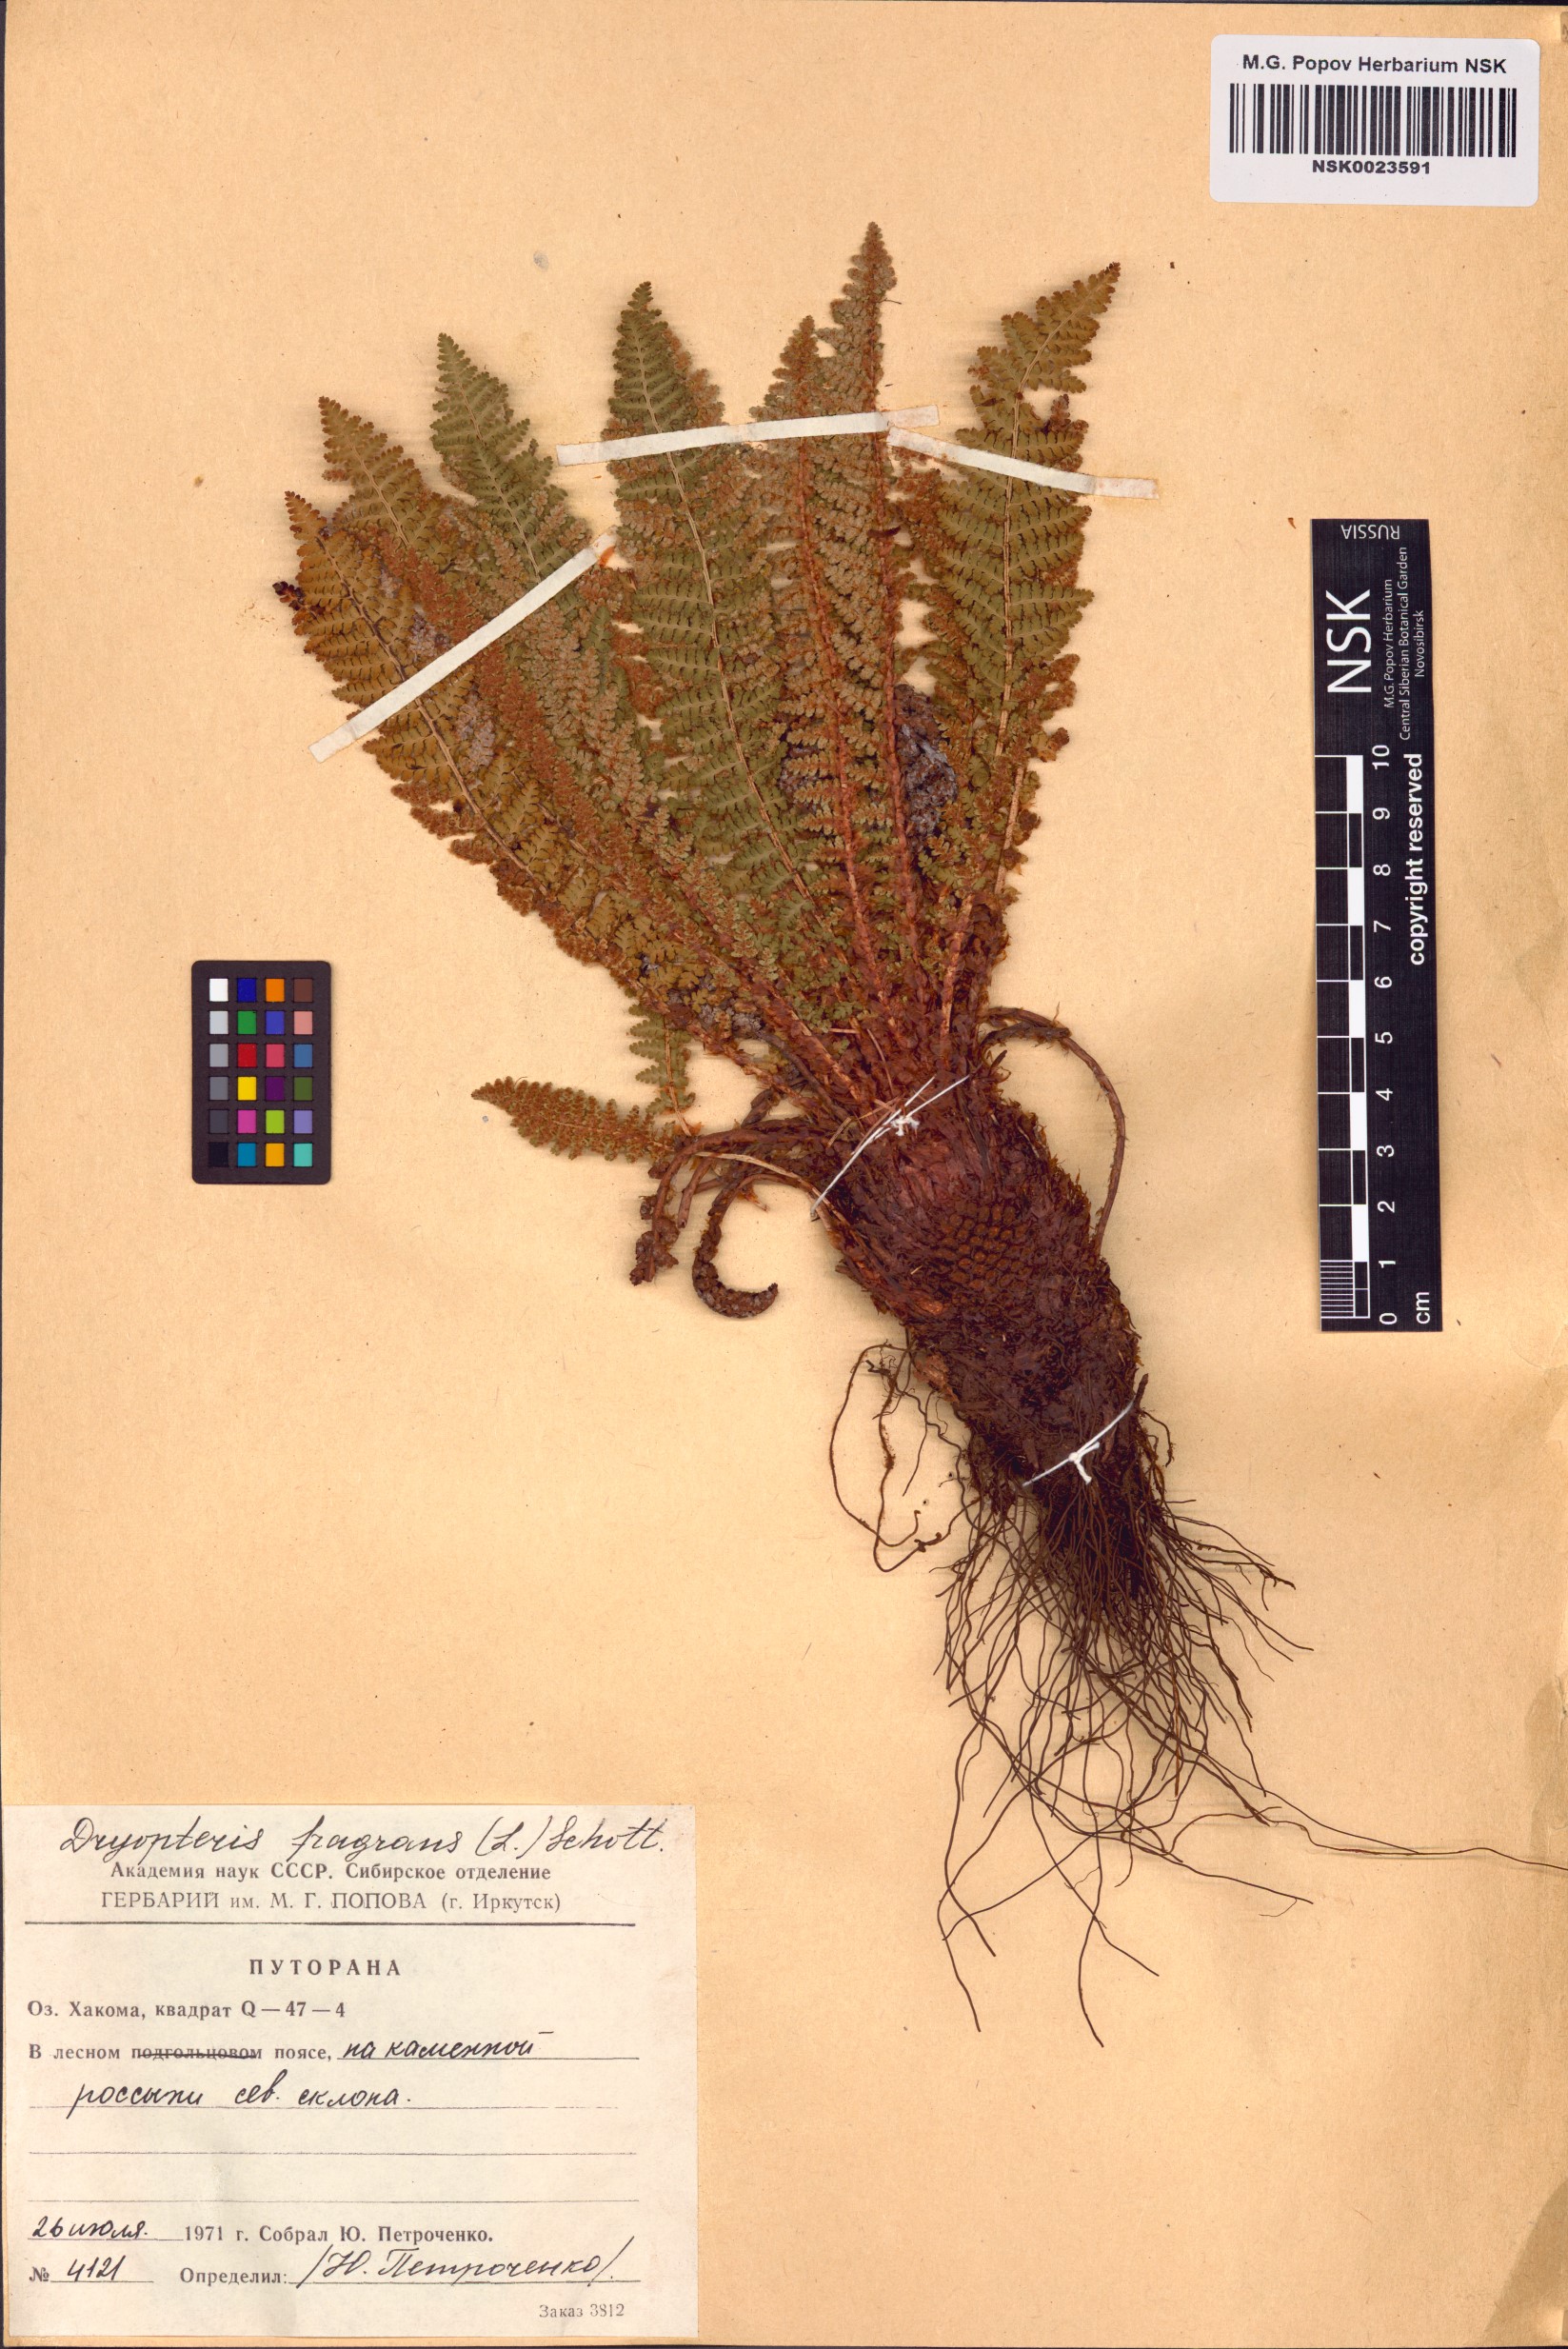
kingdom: Plantae
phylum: Tracheophyta
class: Polypodiopsida
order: Polypodiales
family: Dryopteridaceae
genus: Dryopteris
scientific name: Dryopteris fragrans
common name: Fragrant wood fern
